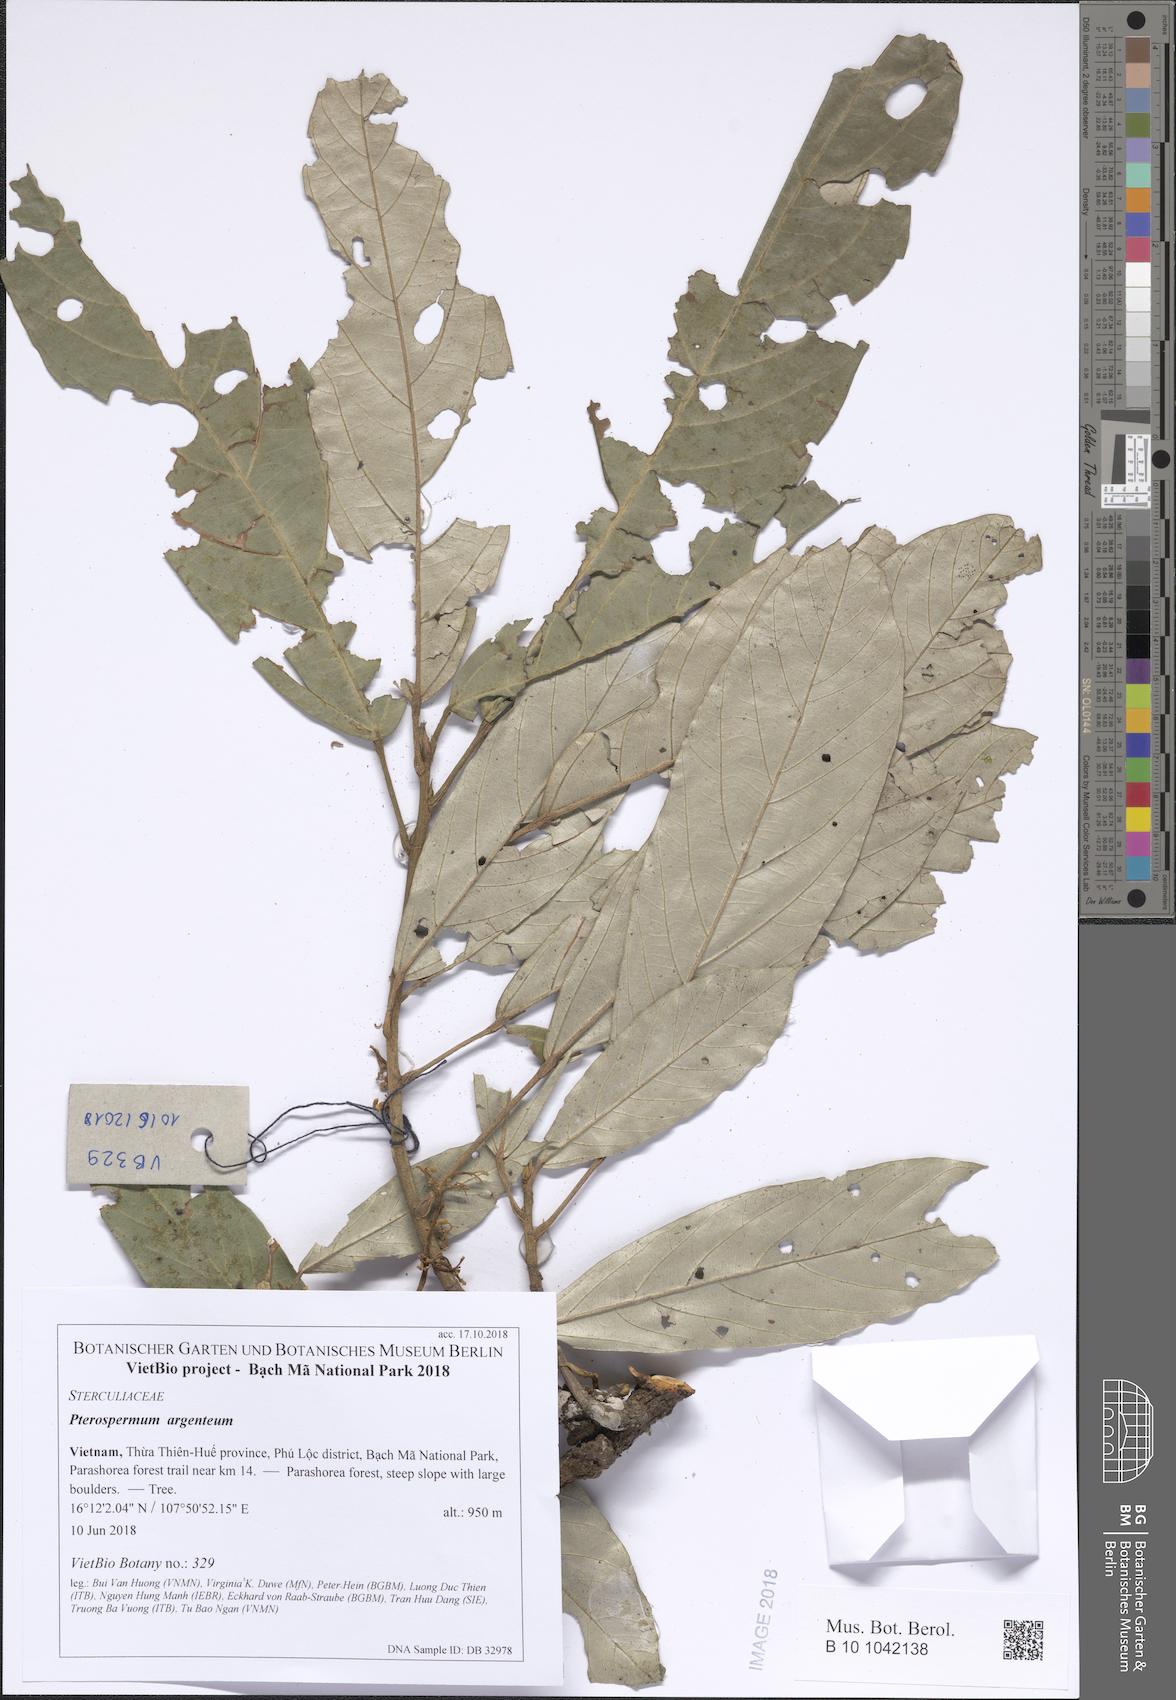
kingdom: Plantae
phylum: Tracheophyta
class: Magnoliopsida
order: Malvales
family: Malvaceae
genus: Pterospermum
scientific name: Pterospermum argenteum
